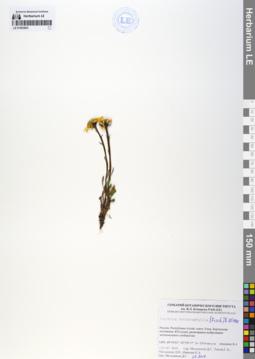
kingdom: Plantae
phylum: Tracheophyta
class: Magnoliopsida
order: Asterales
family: Asteraceae
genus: Packera
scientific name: Packera heterophylla
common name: Arctic butterweed
